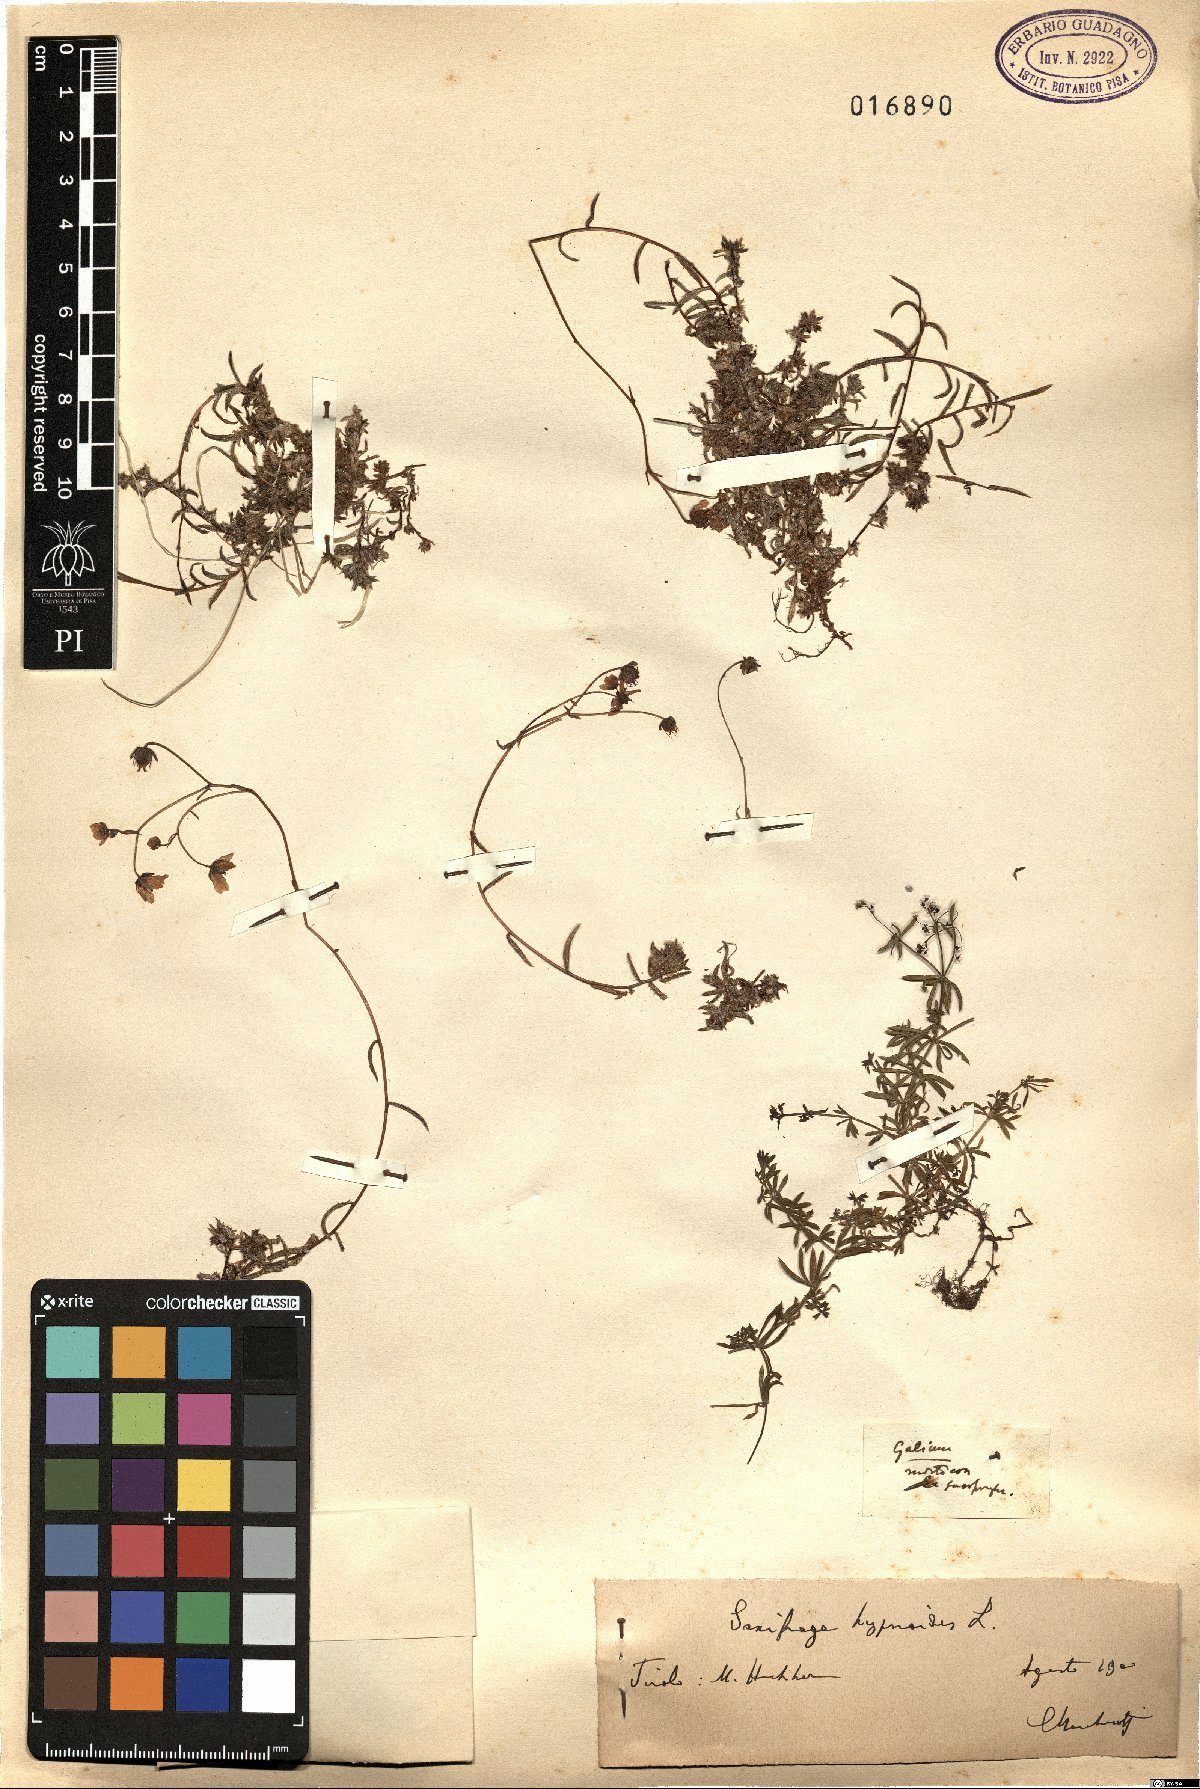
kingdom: Plantae
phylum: Tracheophyta
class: Magnoliopsida
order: Saxifragales
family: Saxifragaceae
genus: Saxifraga
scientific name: Saxifraga hypnoides
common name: Mossy saxifrage
